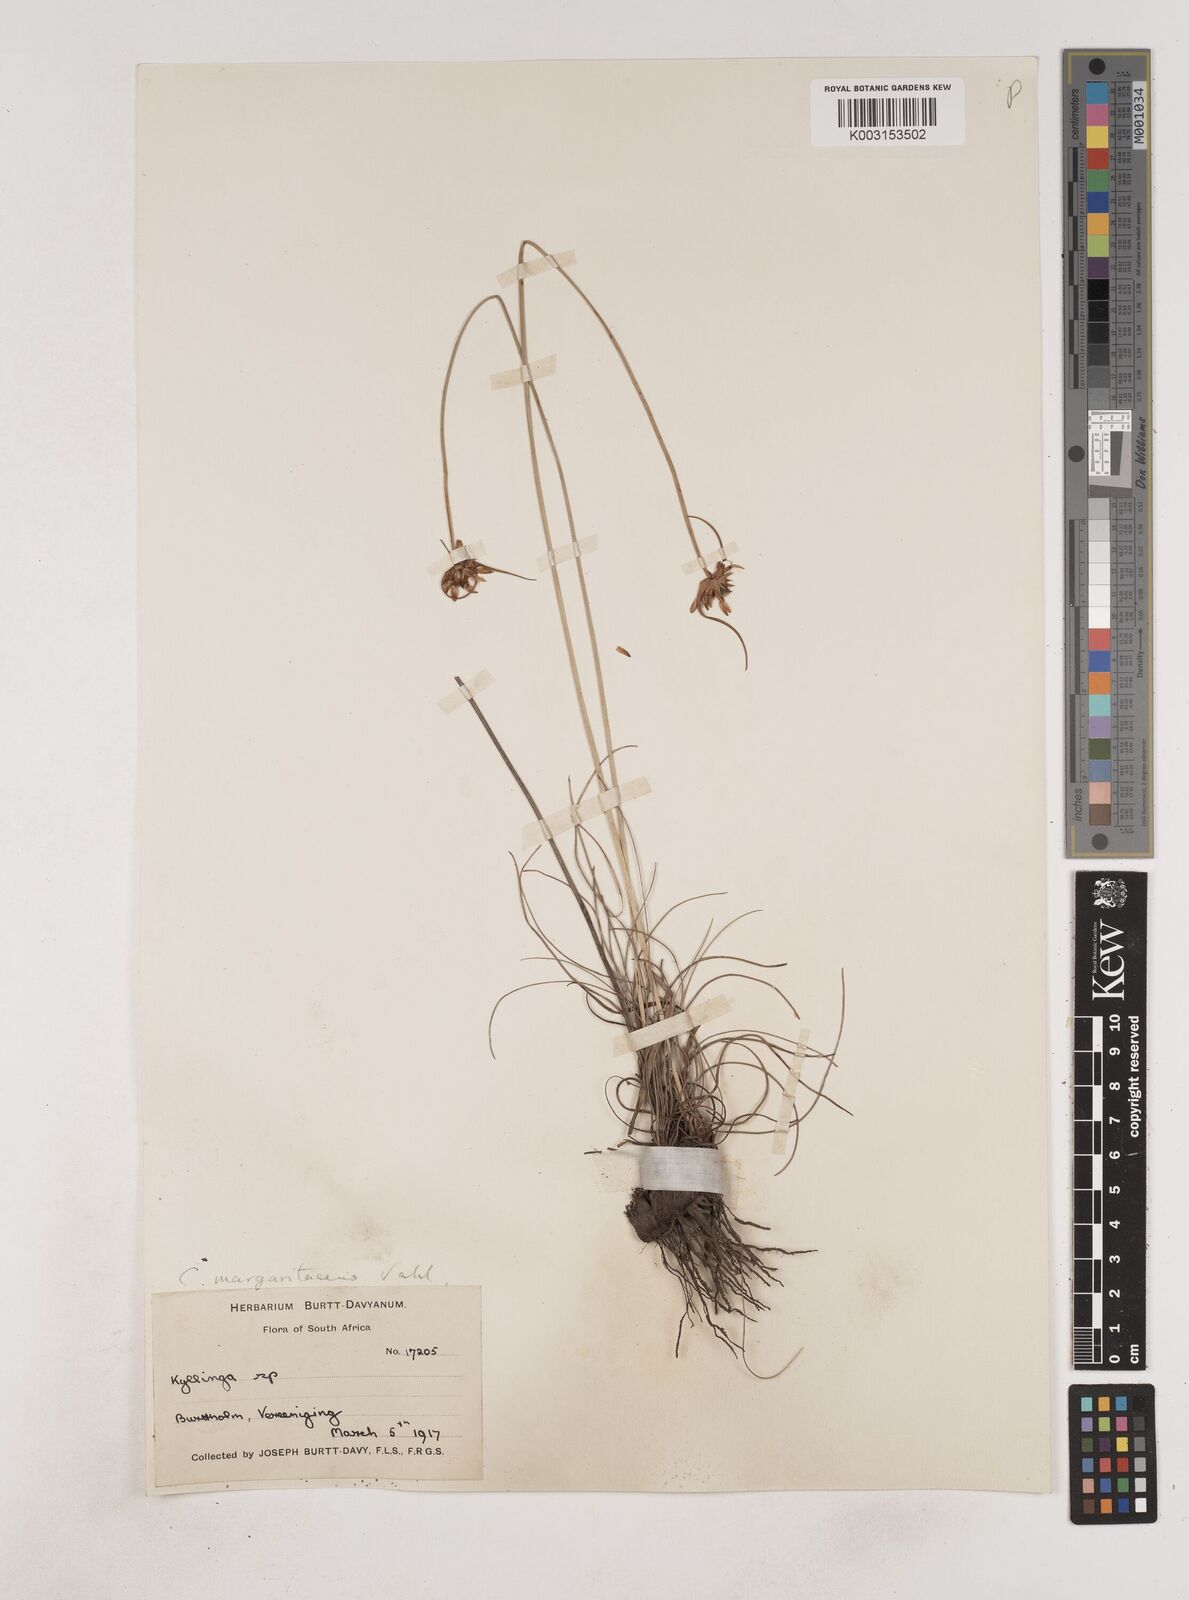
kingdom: Plantae
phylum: Tracheophyta
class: Liliopsida
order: Poales
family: Cyperaceae
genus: Cyperus
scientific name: Cyperus margaritaceus
